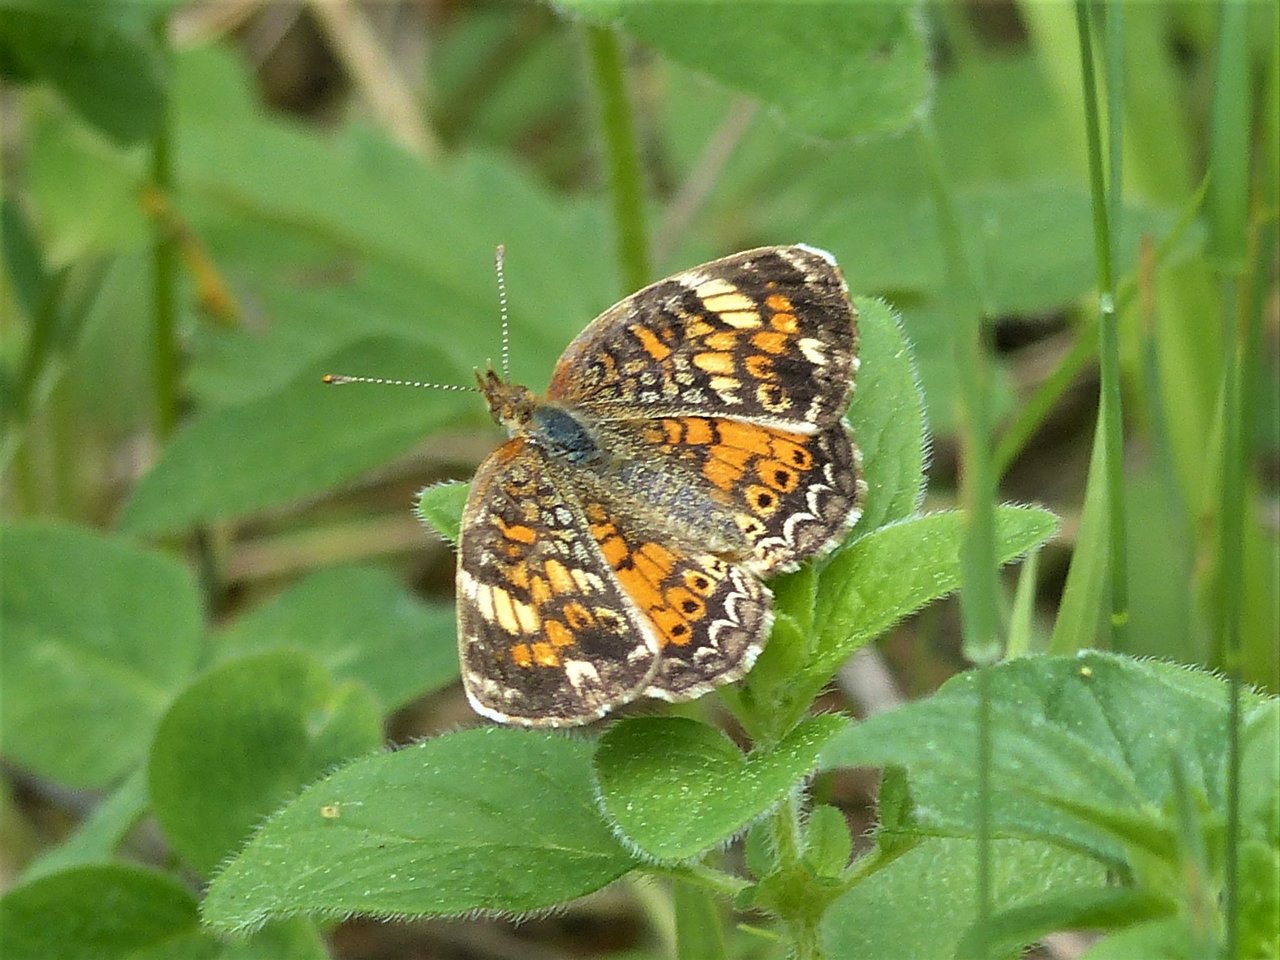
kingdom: Animalia
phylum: Arthropoda
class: Insecta
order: Lepidoptera
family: Nymphalidae
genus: Phyciodes
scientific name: Phyciodes
